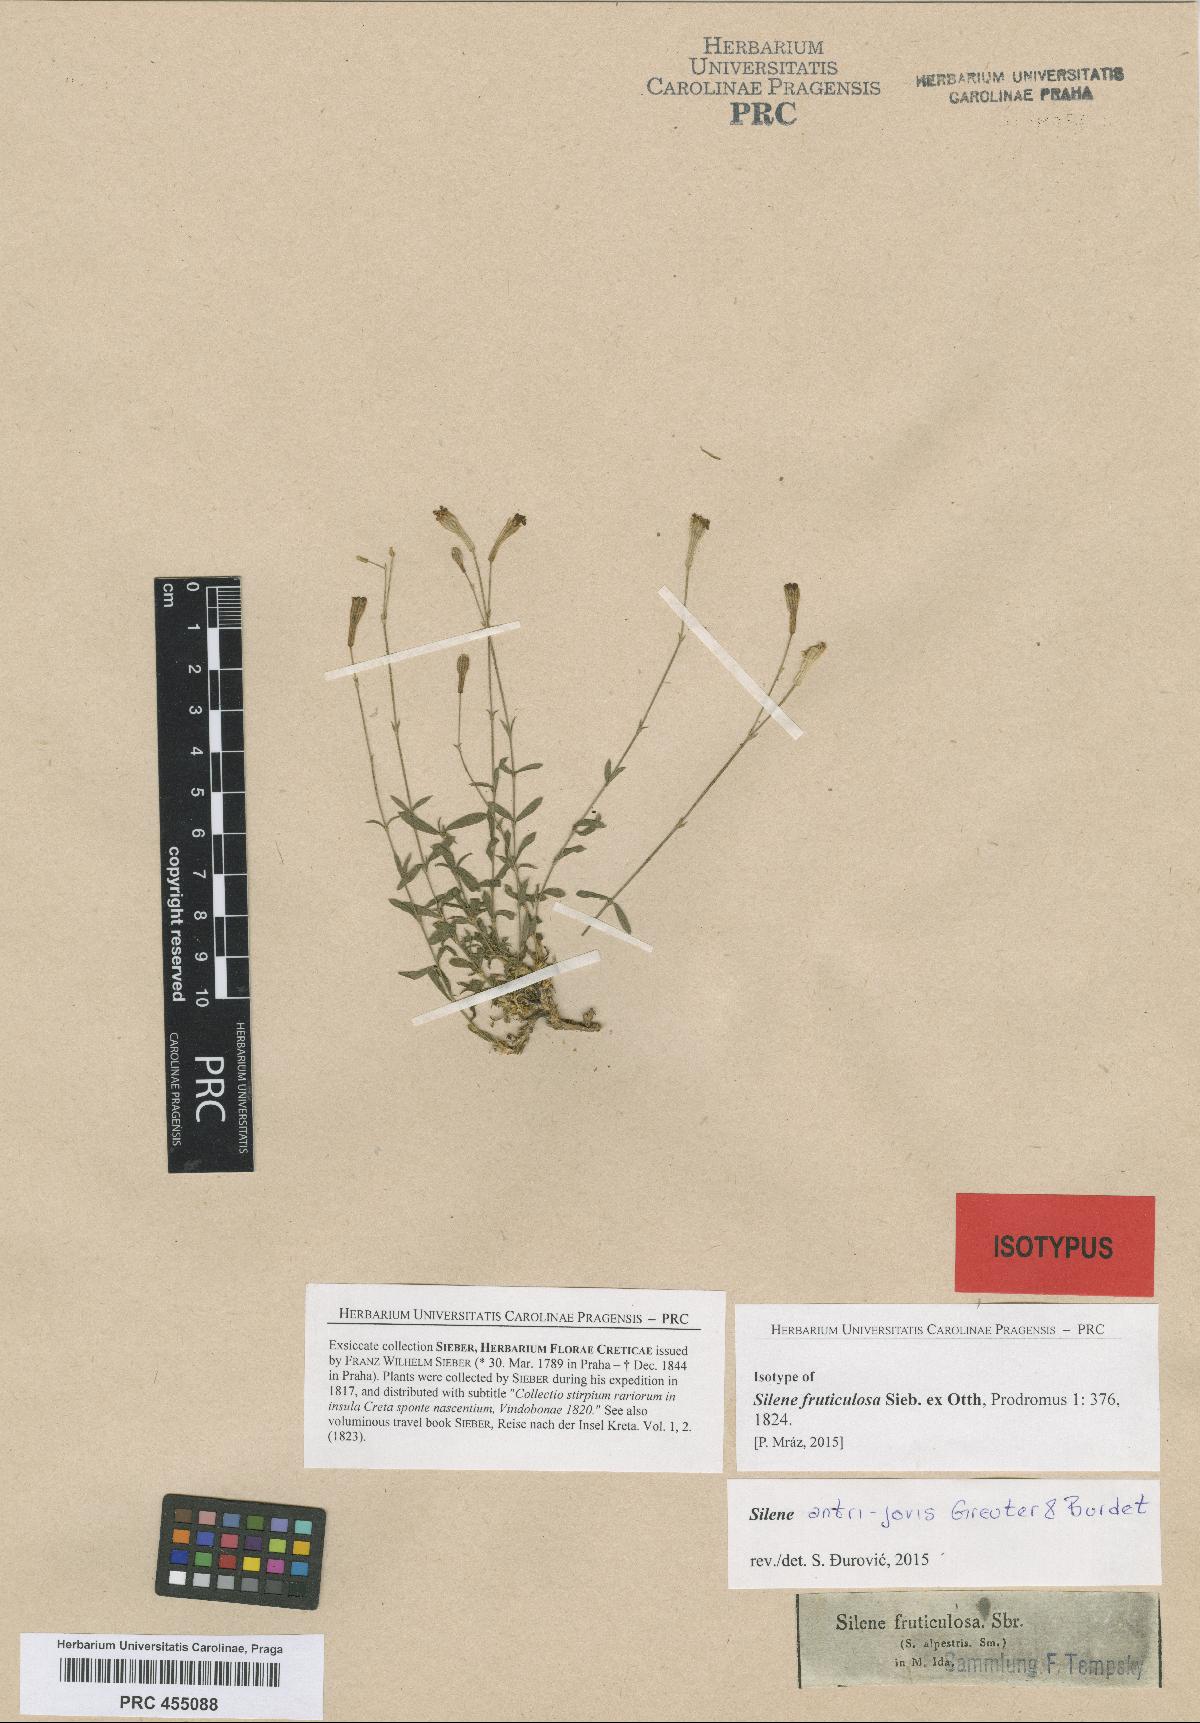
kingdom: Plantae
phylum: Tracheophyta
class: Magnoliopsida
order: Caryophyllales
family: Caryophyllaceae
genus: Silene
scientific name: Silene antri-jovis
